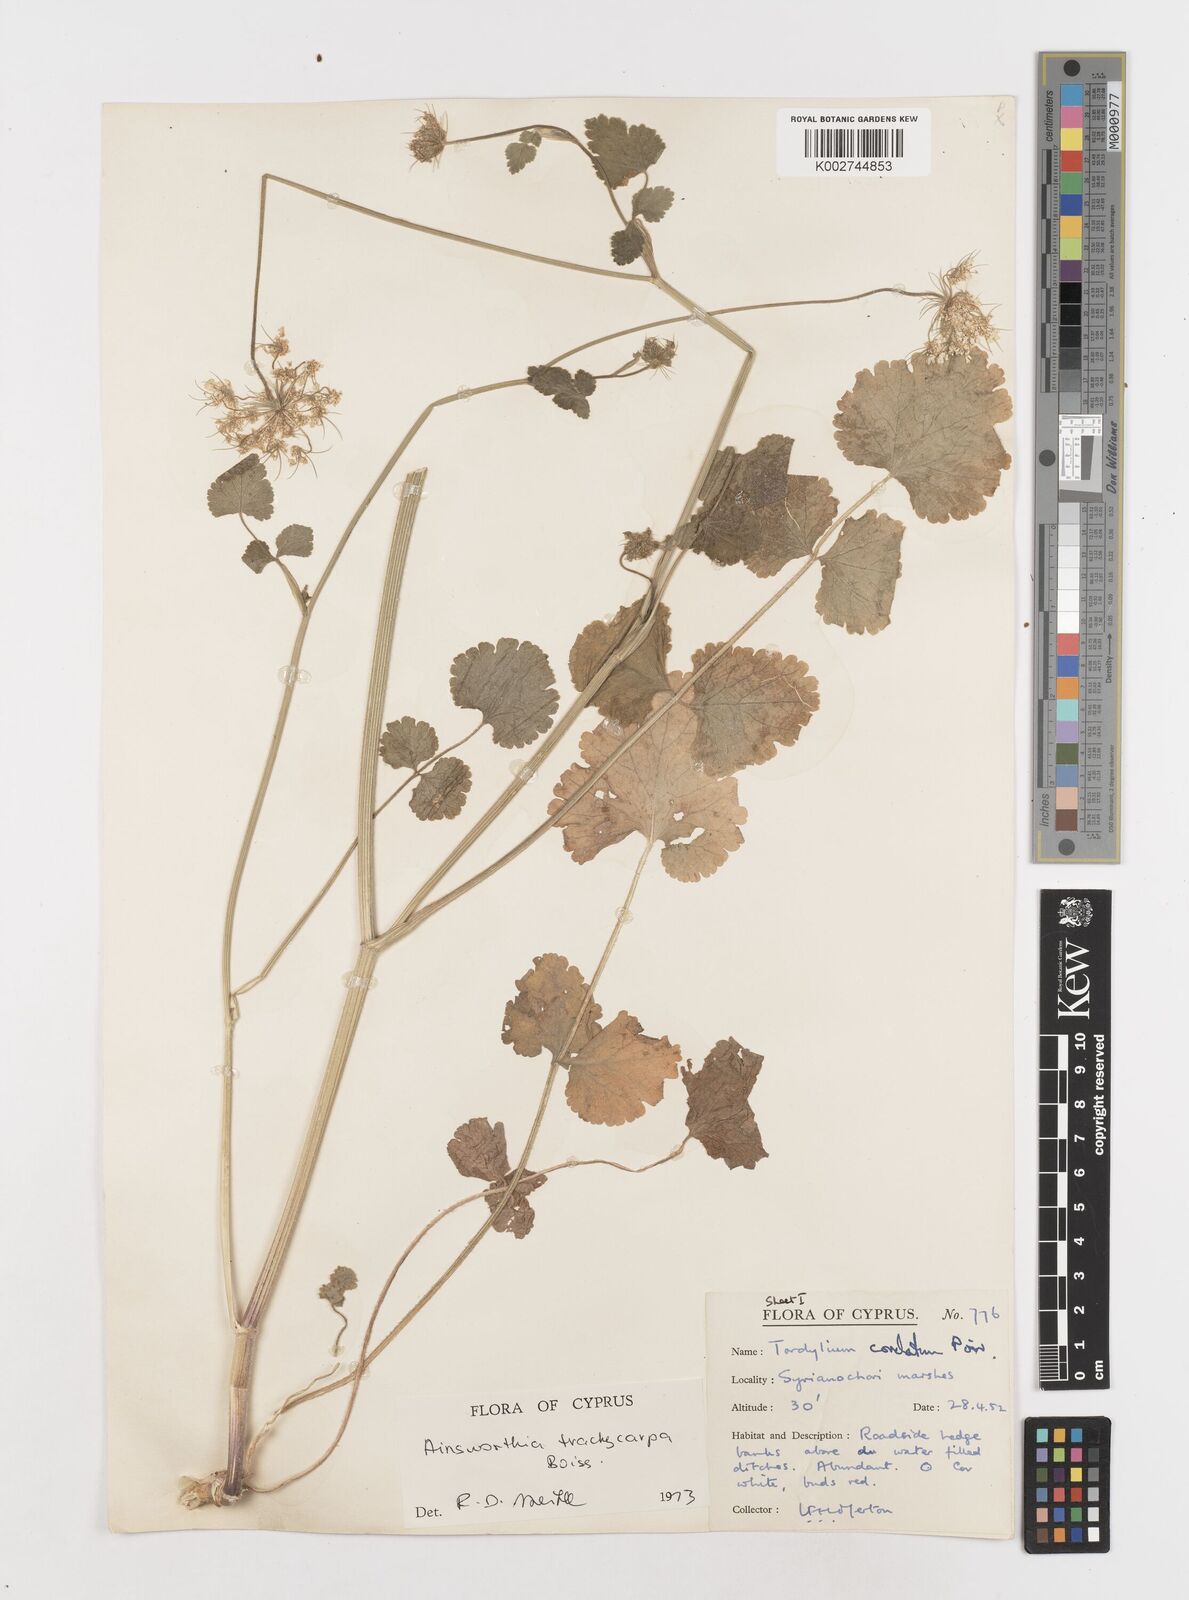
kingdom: Plantae
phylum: Tracheophyta
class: Magnoliopsida
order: Apiales
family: Apiaceae
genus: Ainsworthia
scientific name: Ainsworthia cordata
